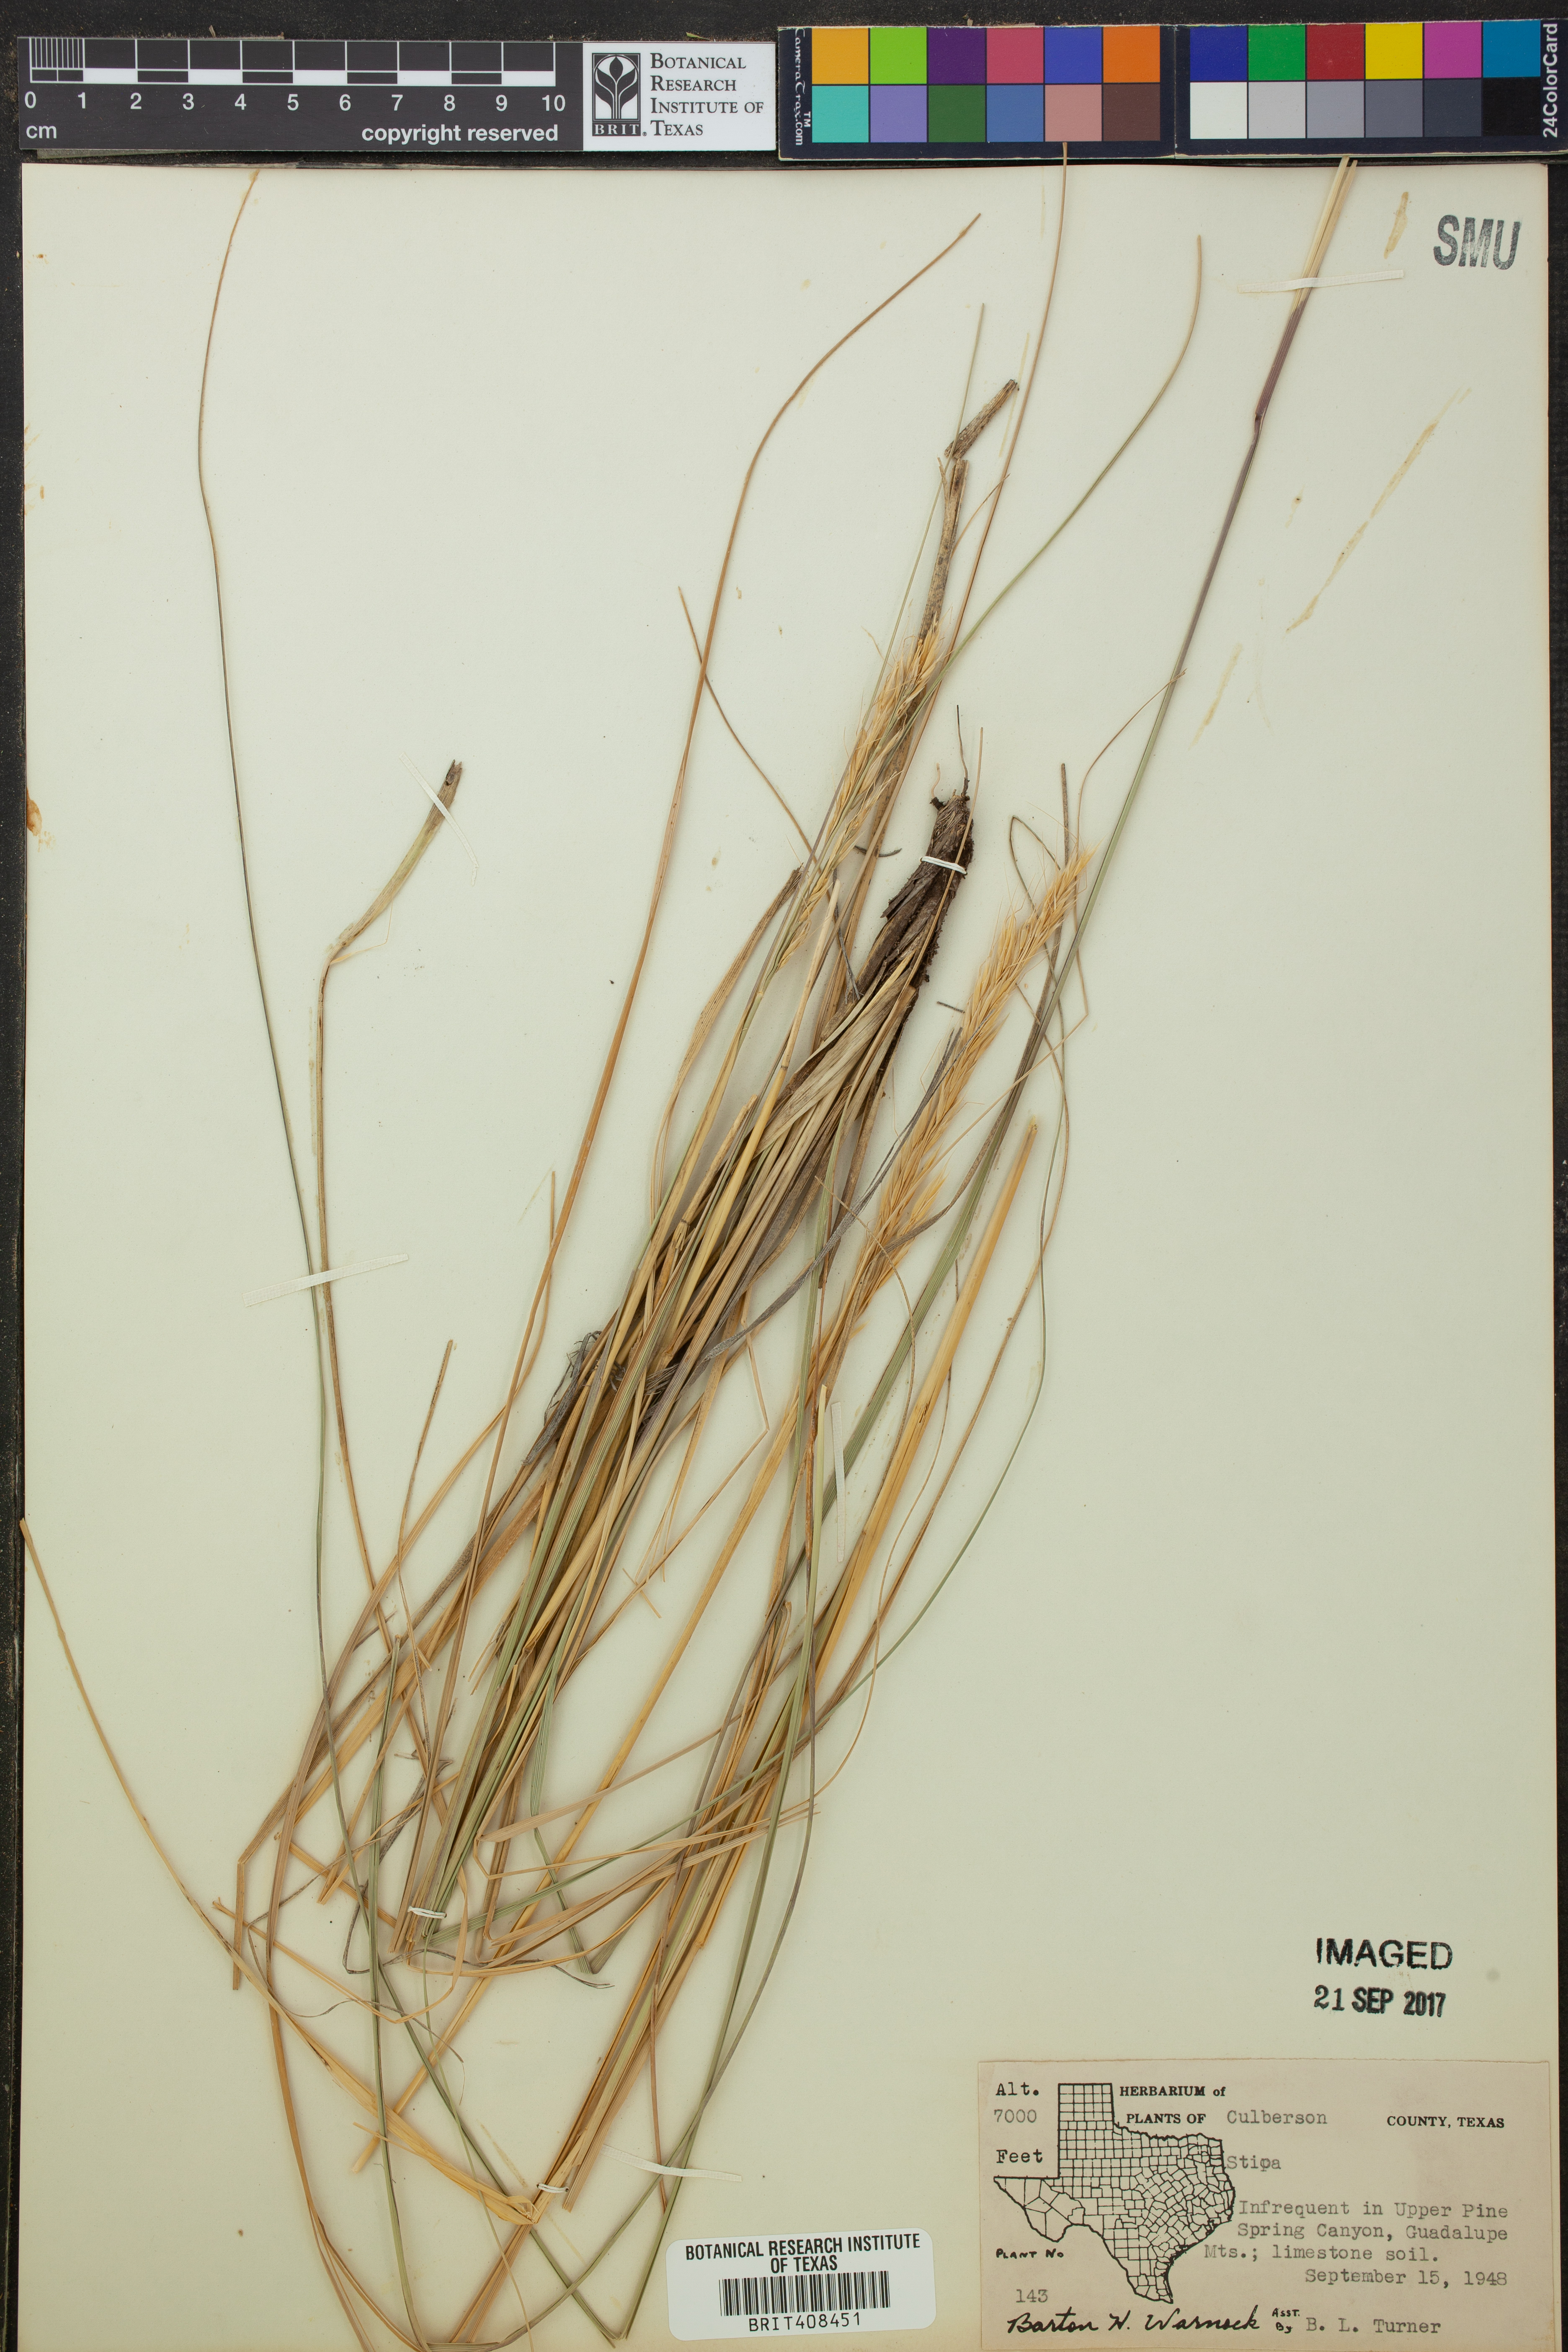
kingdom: Plantae
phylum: Tracheophyta
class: Liliopsida
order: Poales
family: Poaceae
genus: Stipa
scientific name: Stipa
